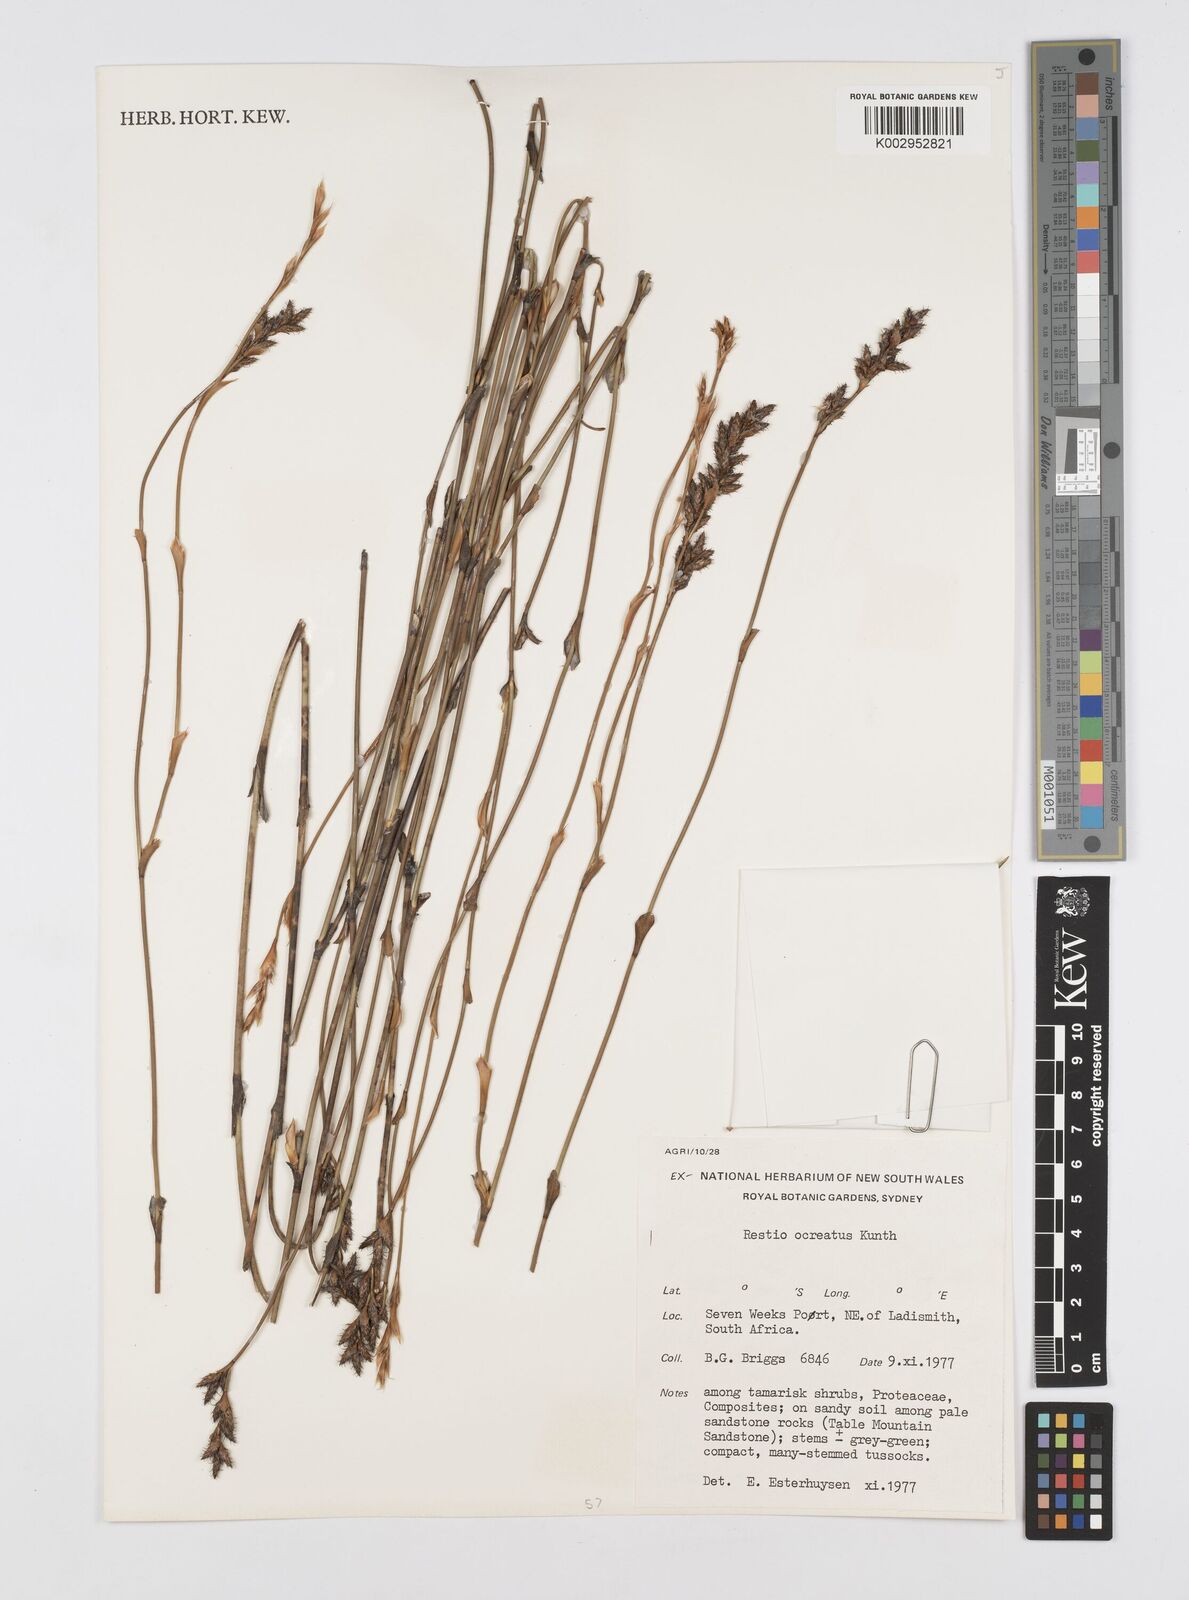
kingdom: Plantae
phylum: Tracheophyta
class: Liliopsida
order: Poales
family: Restionaceae
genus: Restio
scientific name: Restio ocreatus
